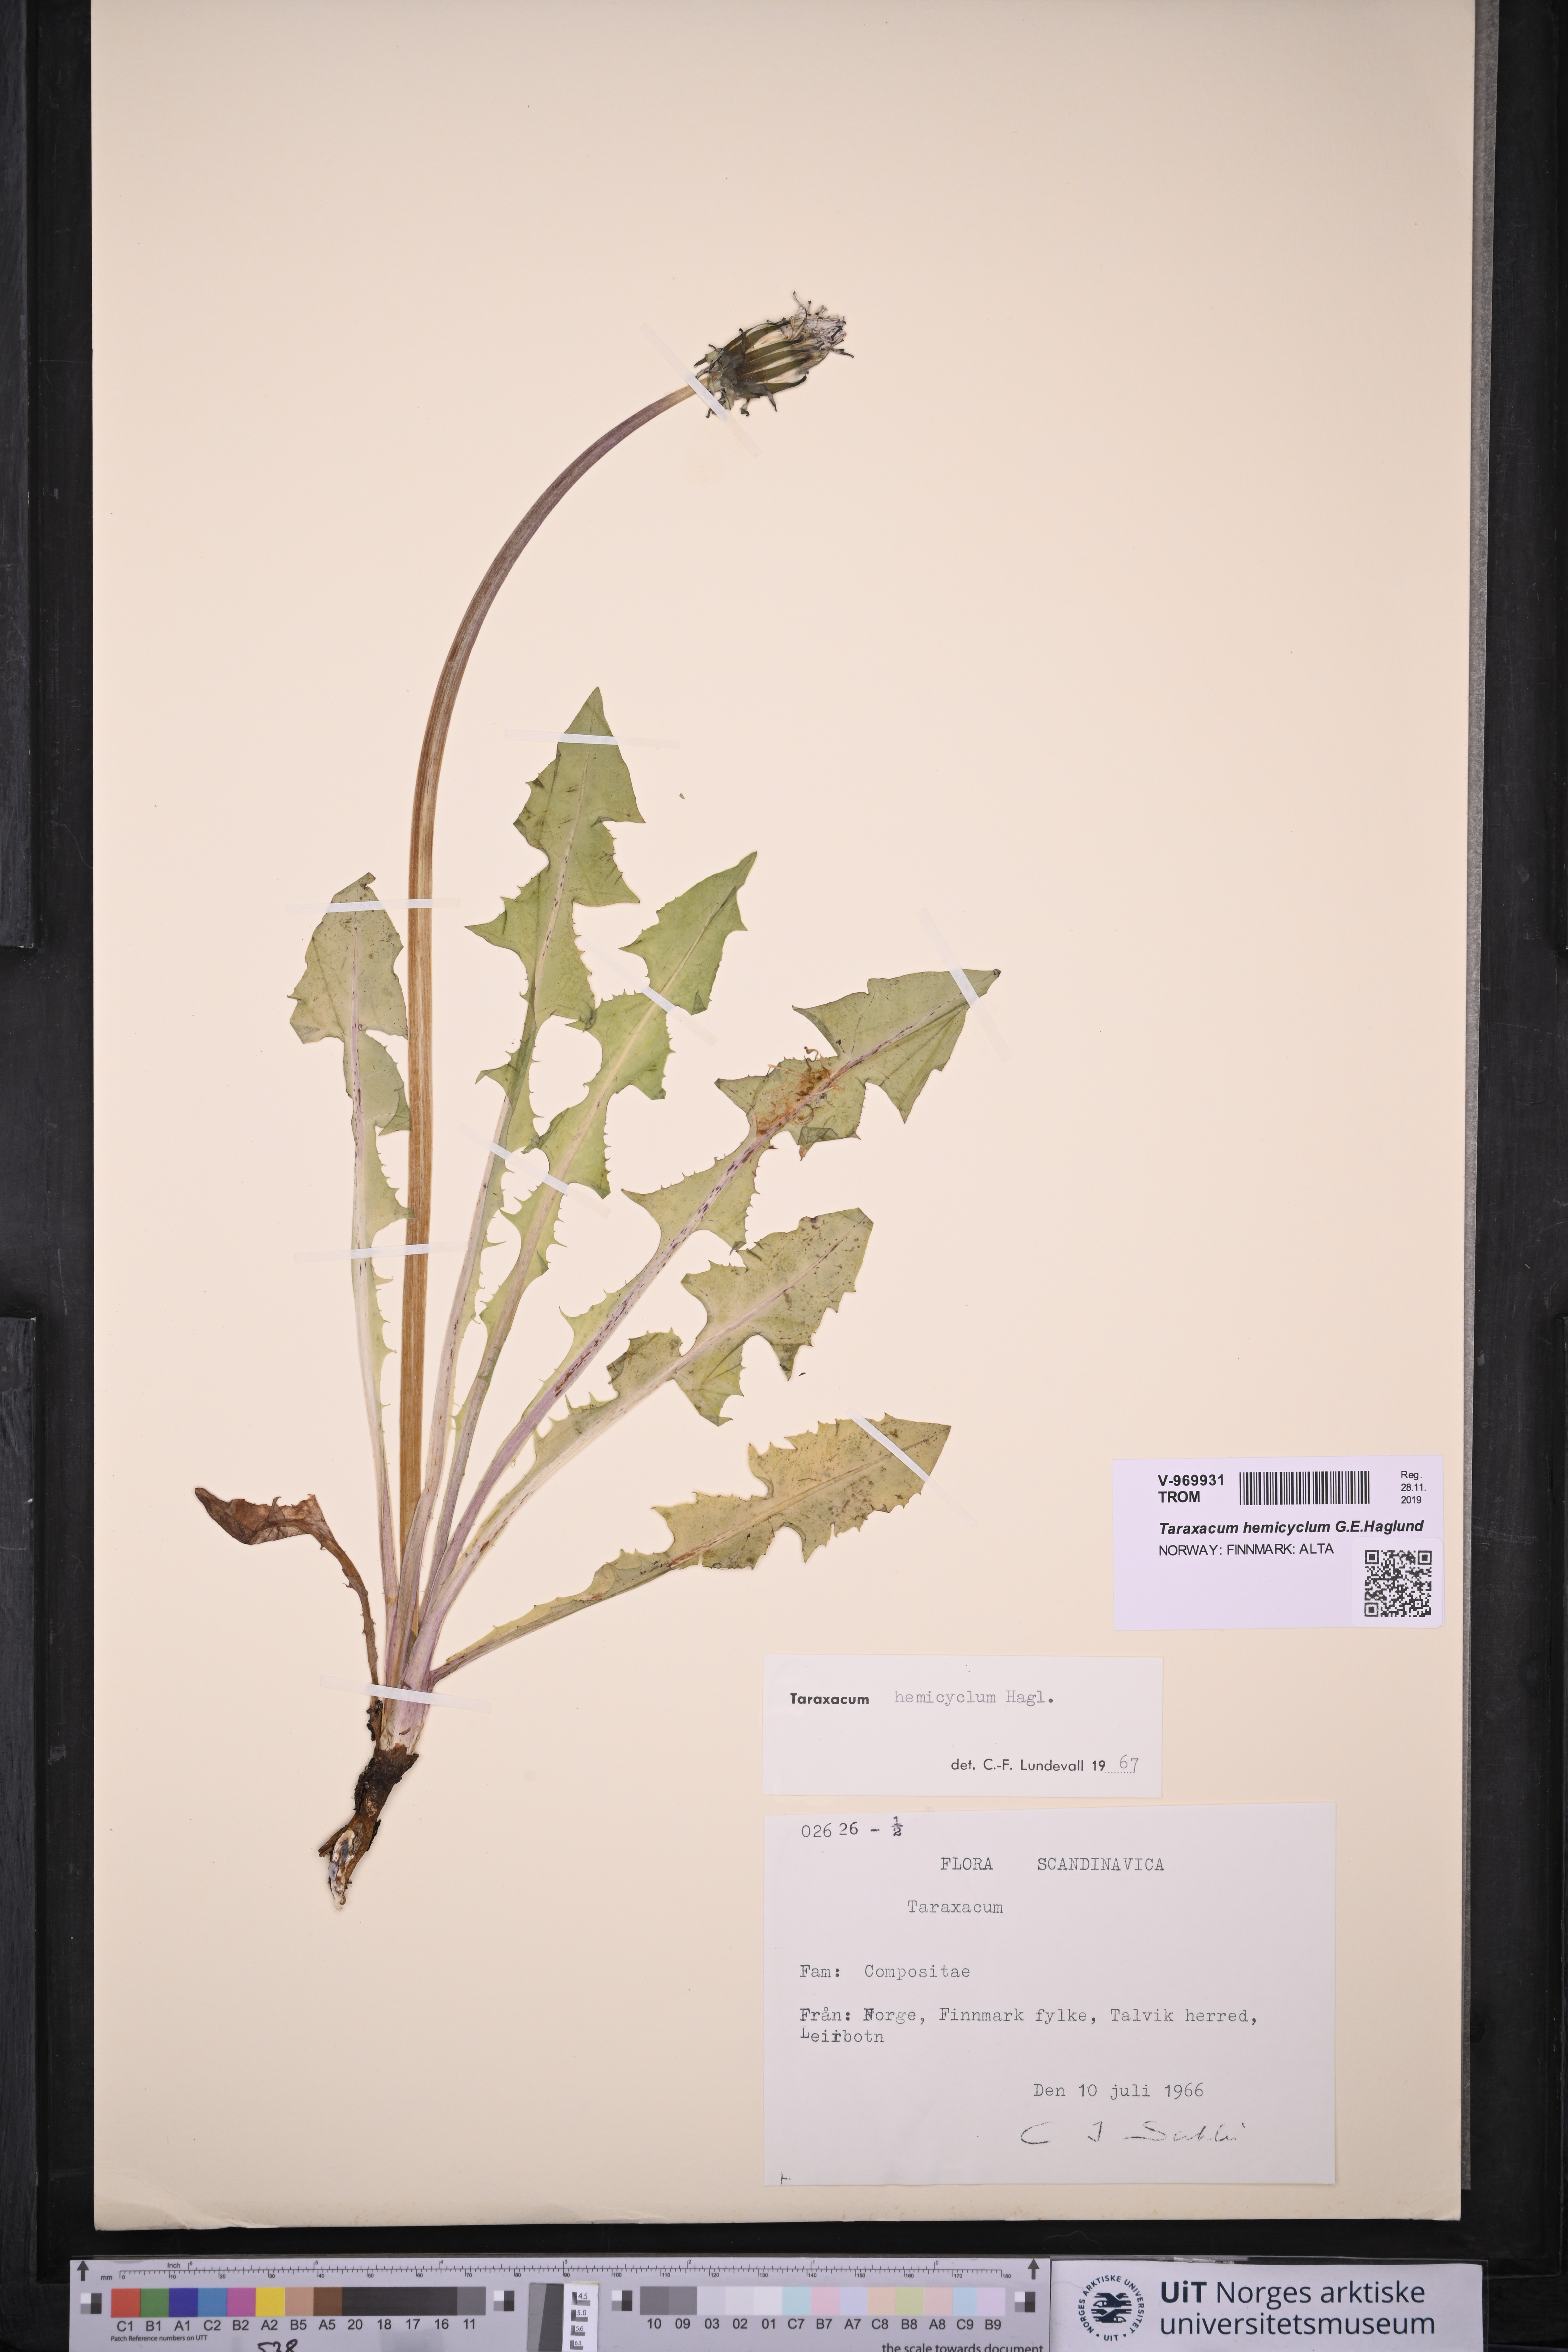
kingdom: Plantae
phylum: Tracheophyta
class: Magnoliopsida
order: Asterales
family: Asteraceae
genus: Taraxacum
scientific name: Taraxacum adiantifrons
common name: Pretty-leaved dandelion
